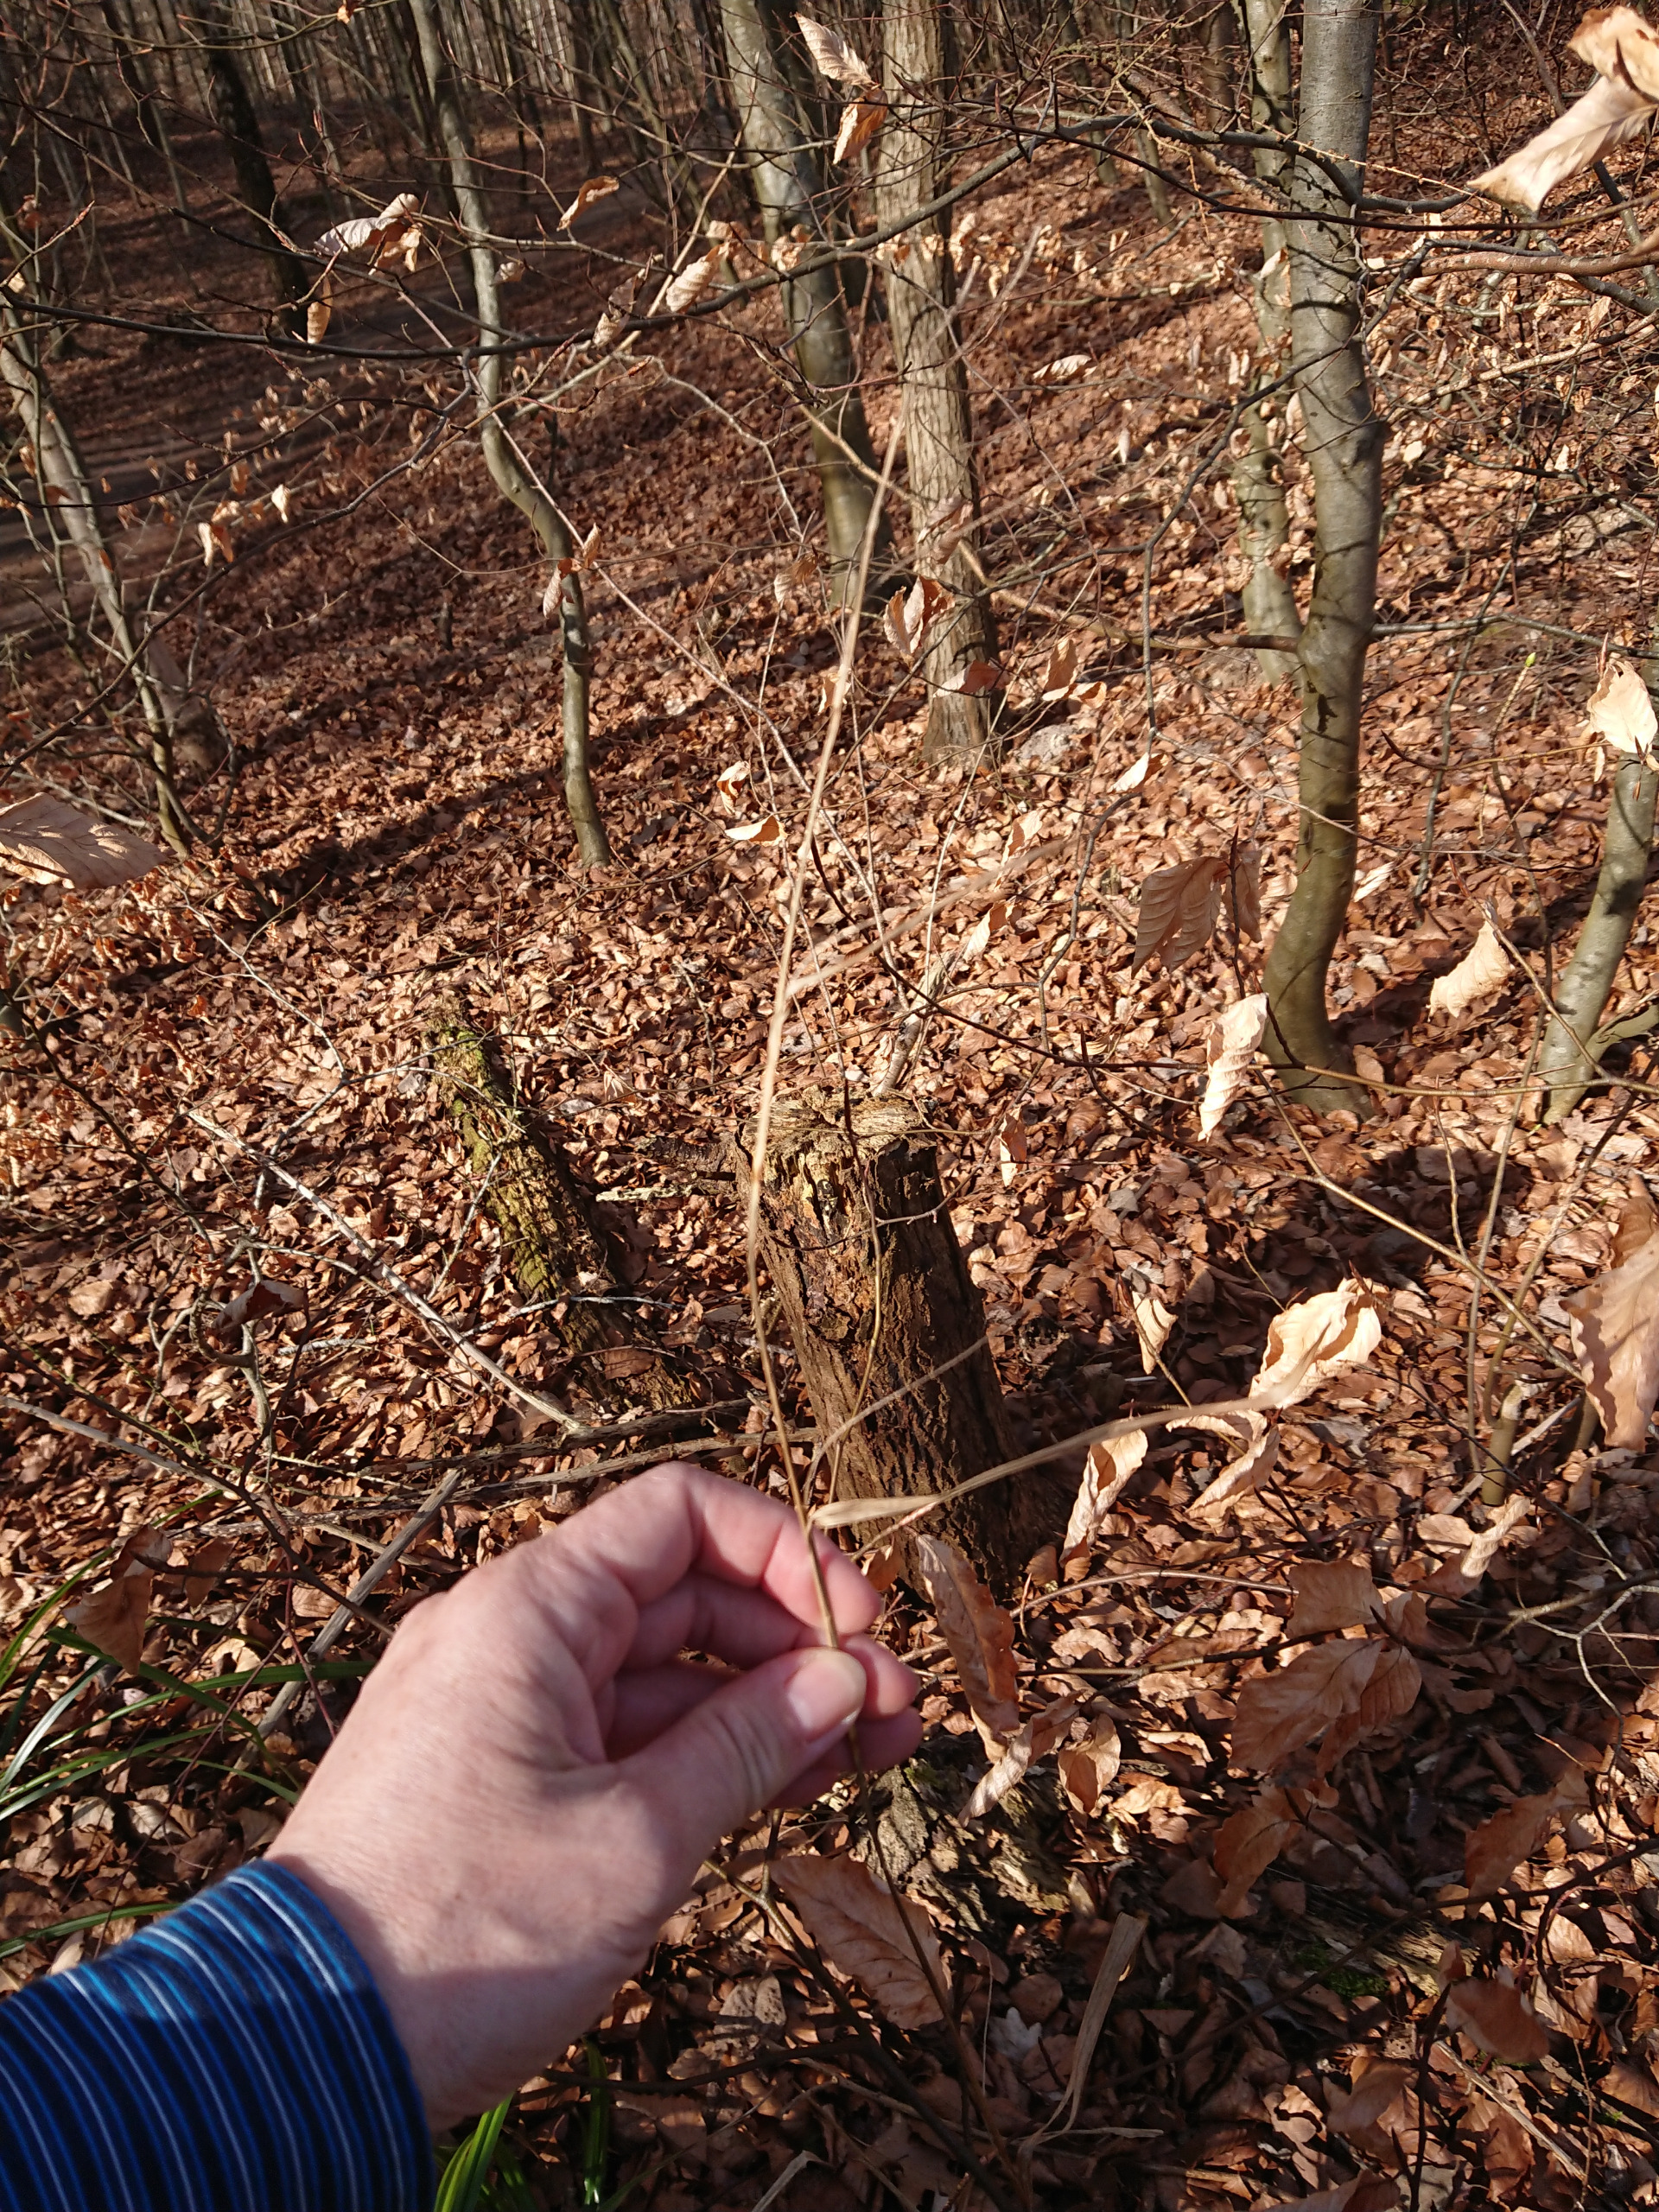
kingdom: Plantae
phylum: Tracheophyta
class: Liliopsida
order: Poales
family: Cyperaceae
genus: Carex
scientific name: Carex pendula
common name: Kæmpe-star
